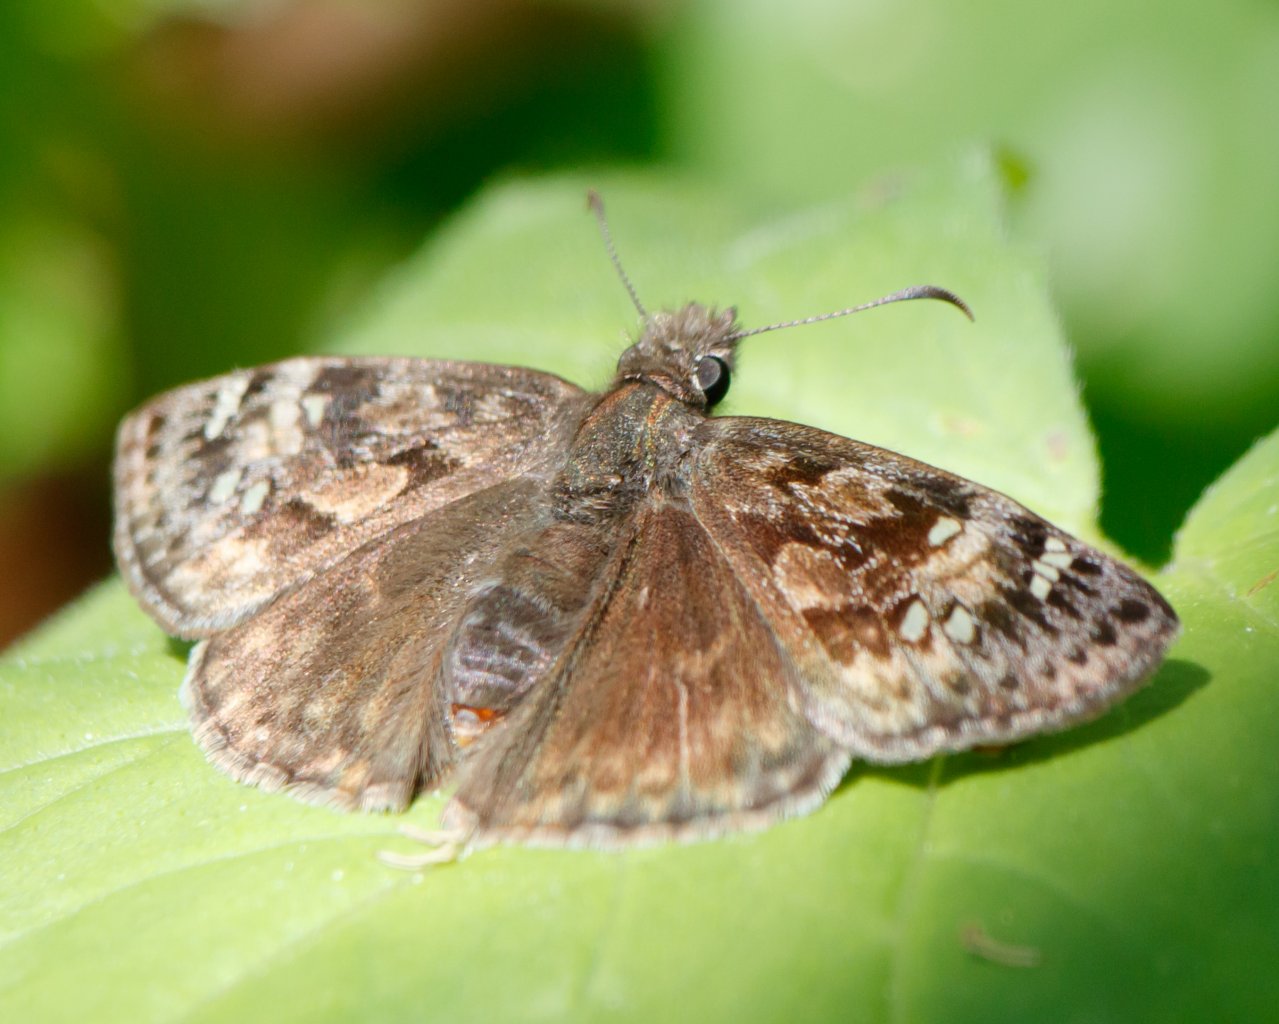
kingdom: Animalia
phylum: Arthropoda
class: Insecta
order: Lepidoptera
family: Hesperiidae
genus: Gesta
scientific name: Gesta
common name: Juvenal's Duskywing
